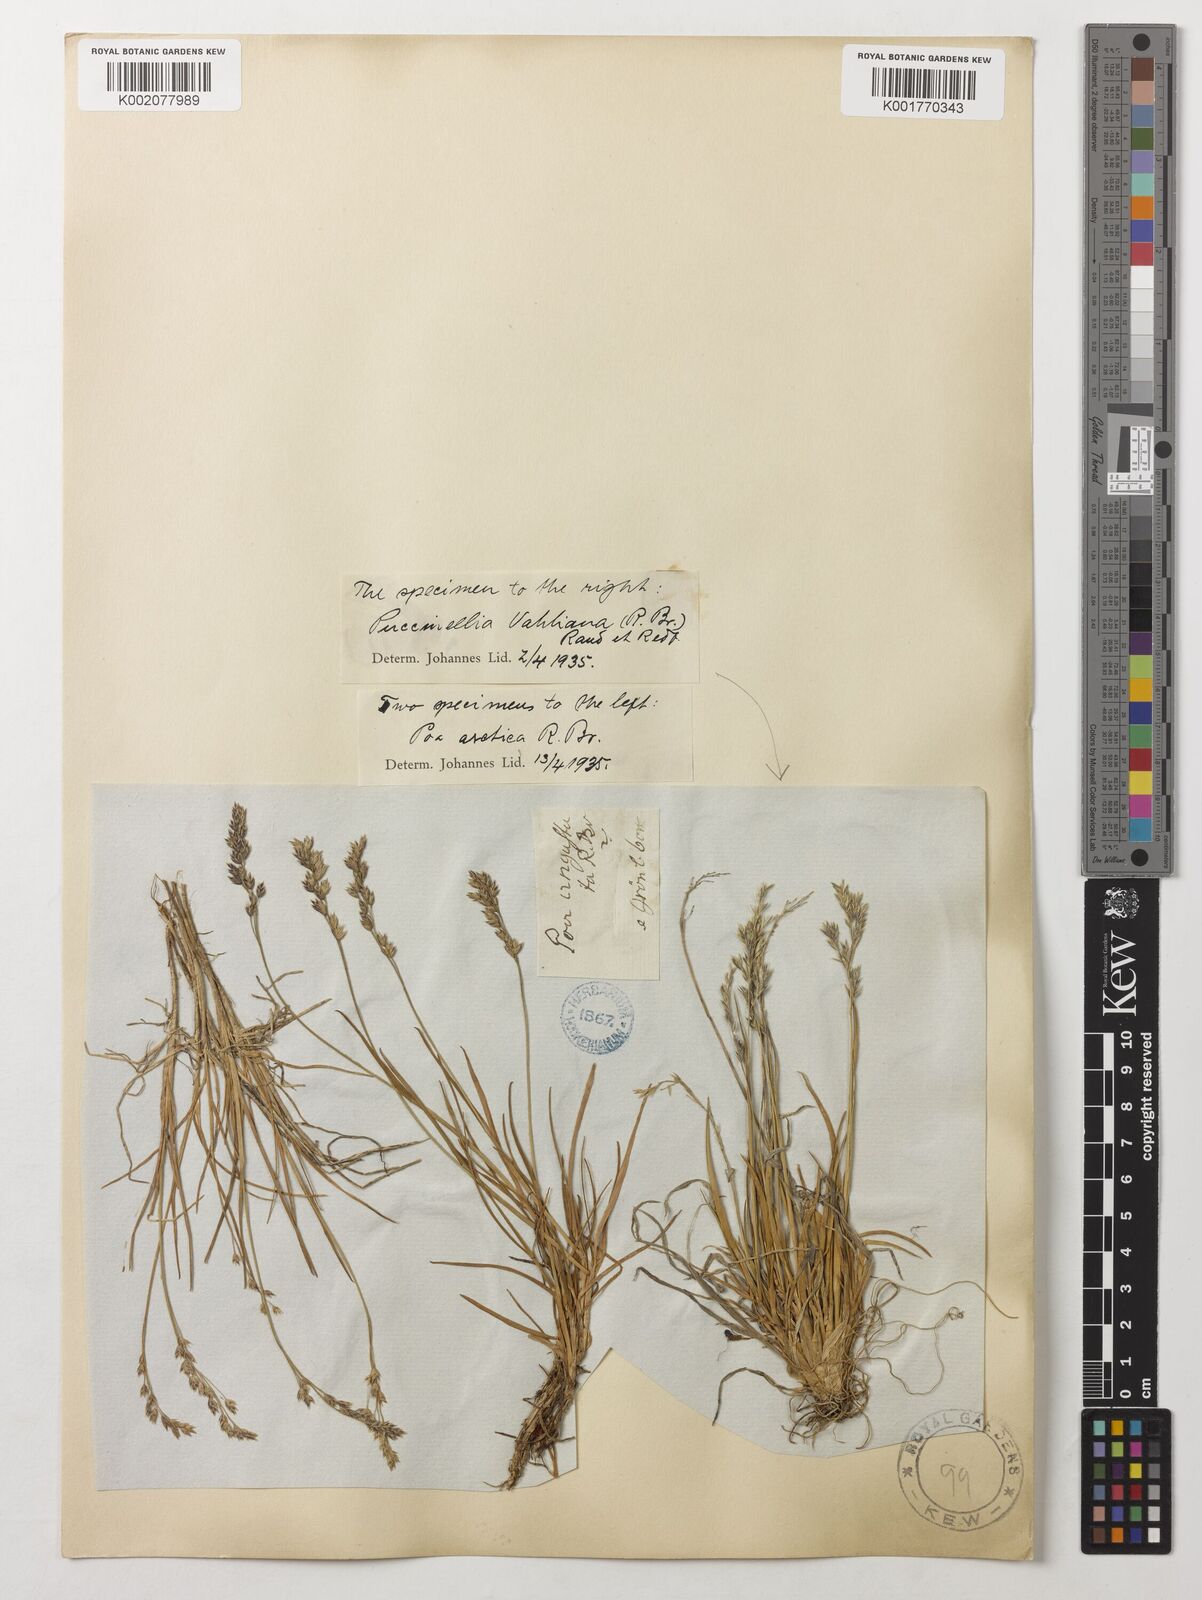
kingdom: Plantae
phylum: Tracheophyta
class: Liliopsida
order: Poales
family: Poaceae
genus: Puccinellia
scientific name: Puccinellia vahliana
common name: Vahl's alkaligrass
